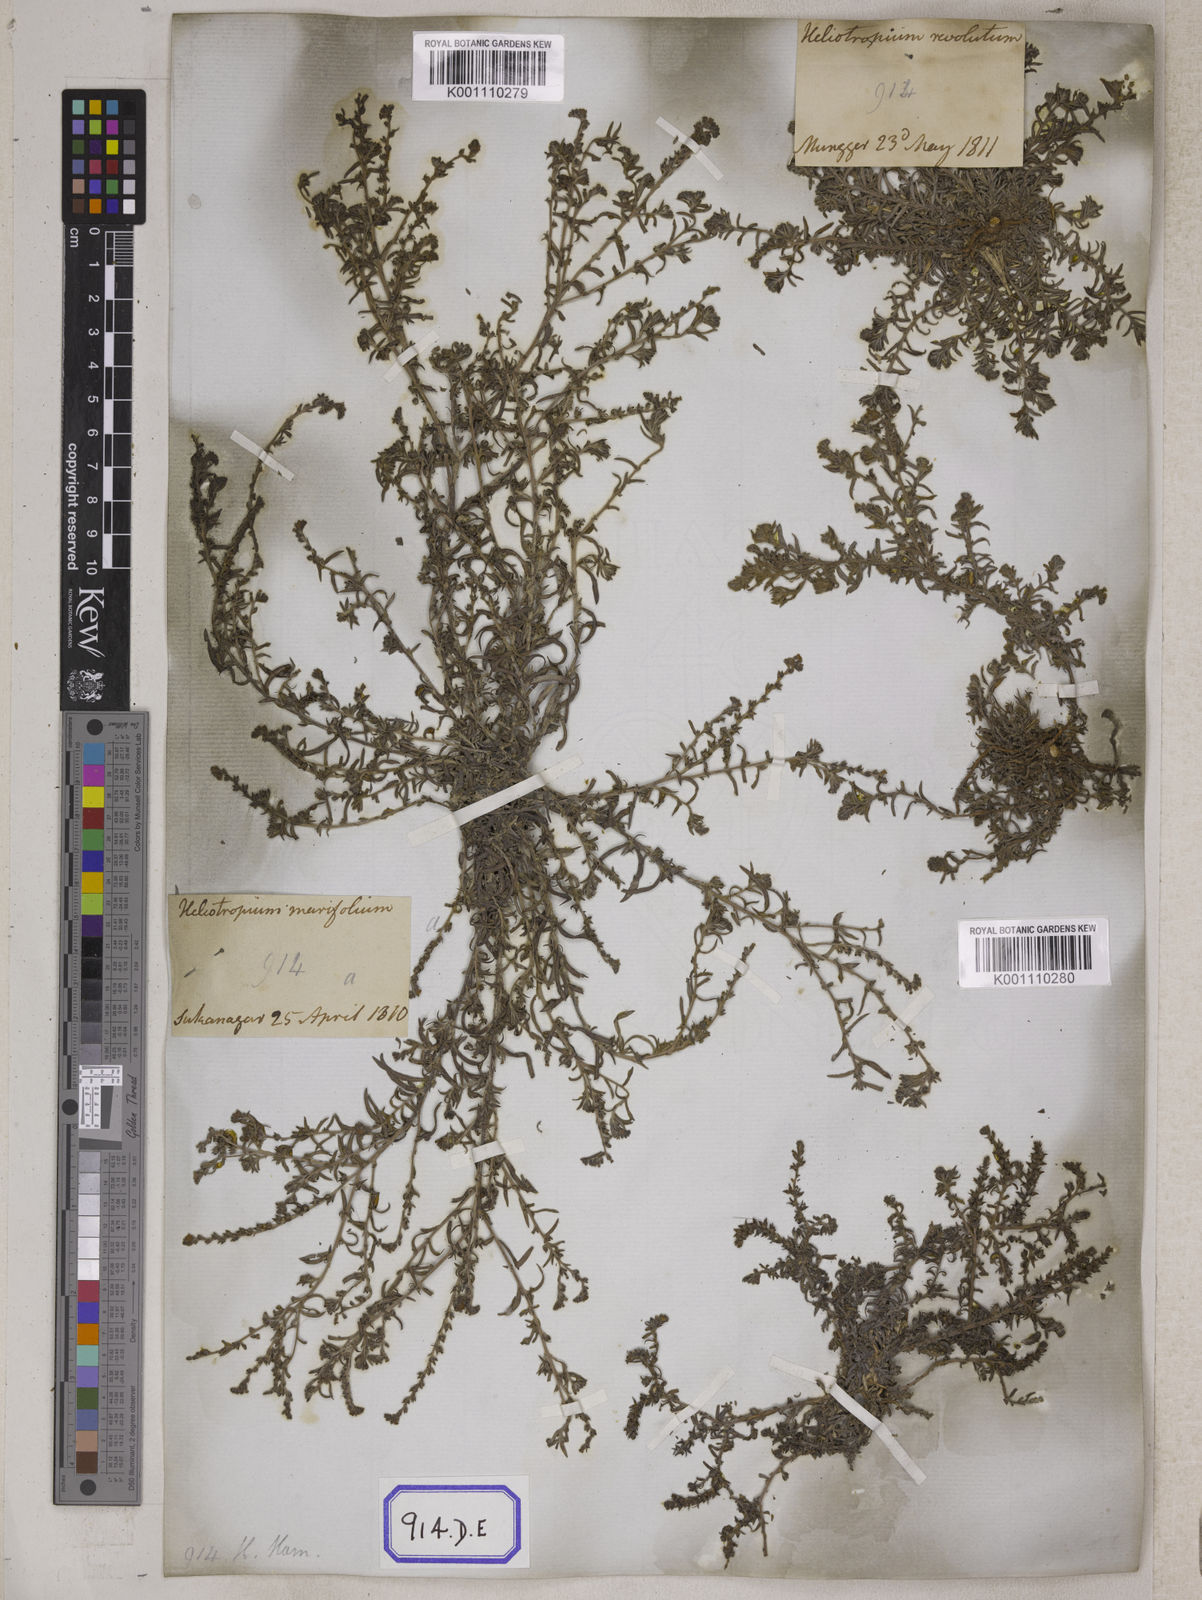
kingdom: Plantae
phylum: Tracheophyta
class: Magnoliopsida
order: Boraginales
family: Heliotropiaceae
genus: Euploca
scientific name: Euploca strigosa
